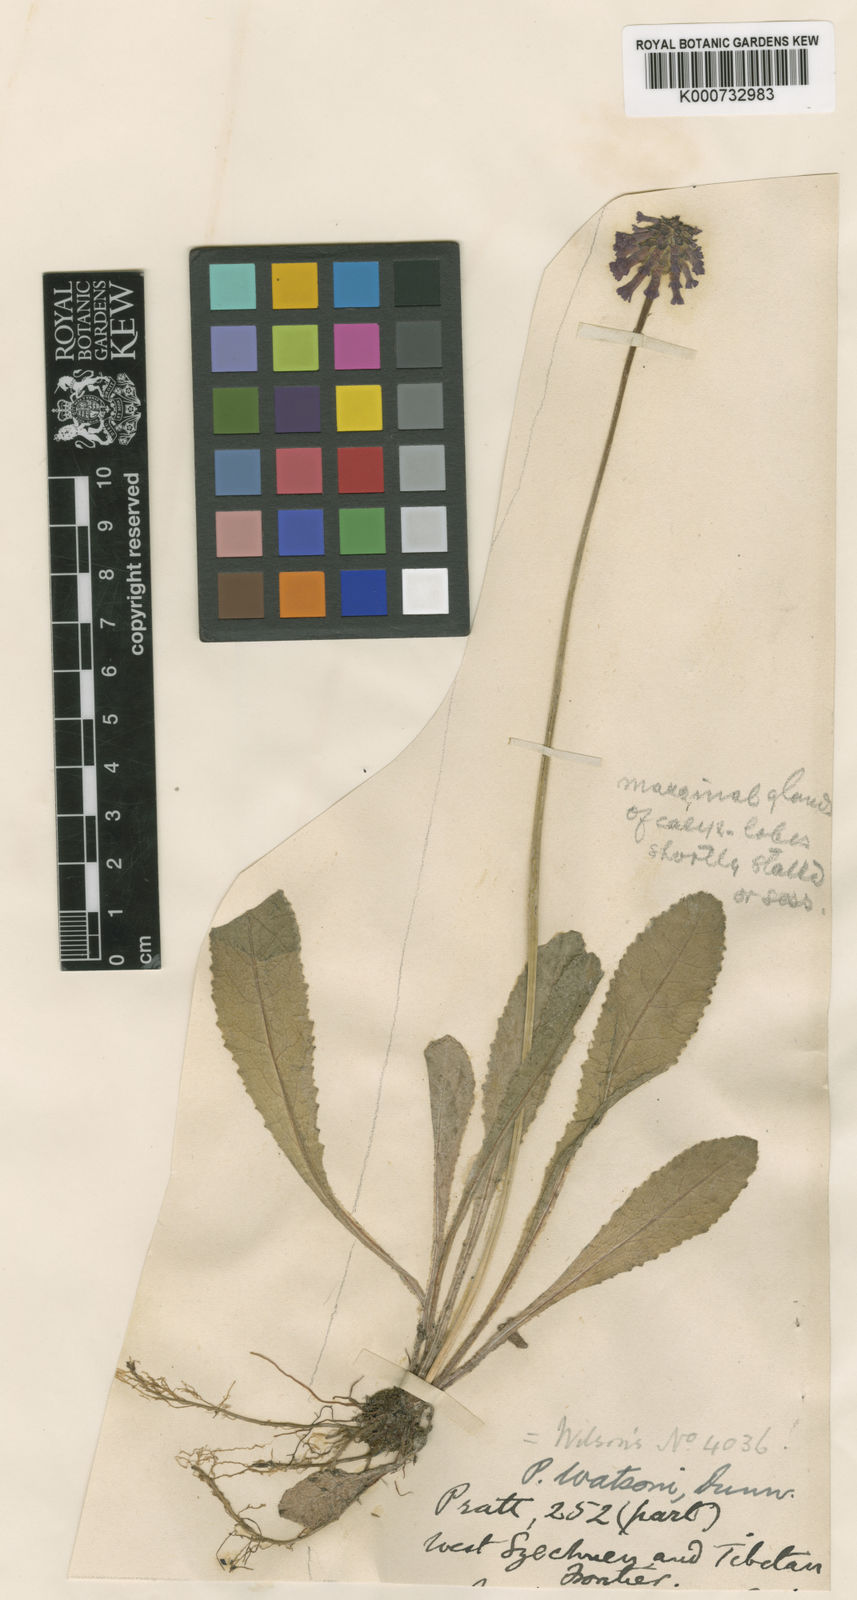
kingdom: Plantae
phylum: Tracheophyta
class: Magnoliopsida
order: Ericales
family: Primulaceae
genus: Primula
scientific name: Primula watsonii
